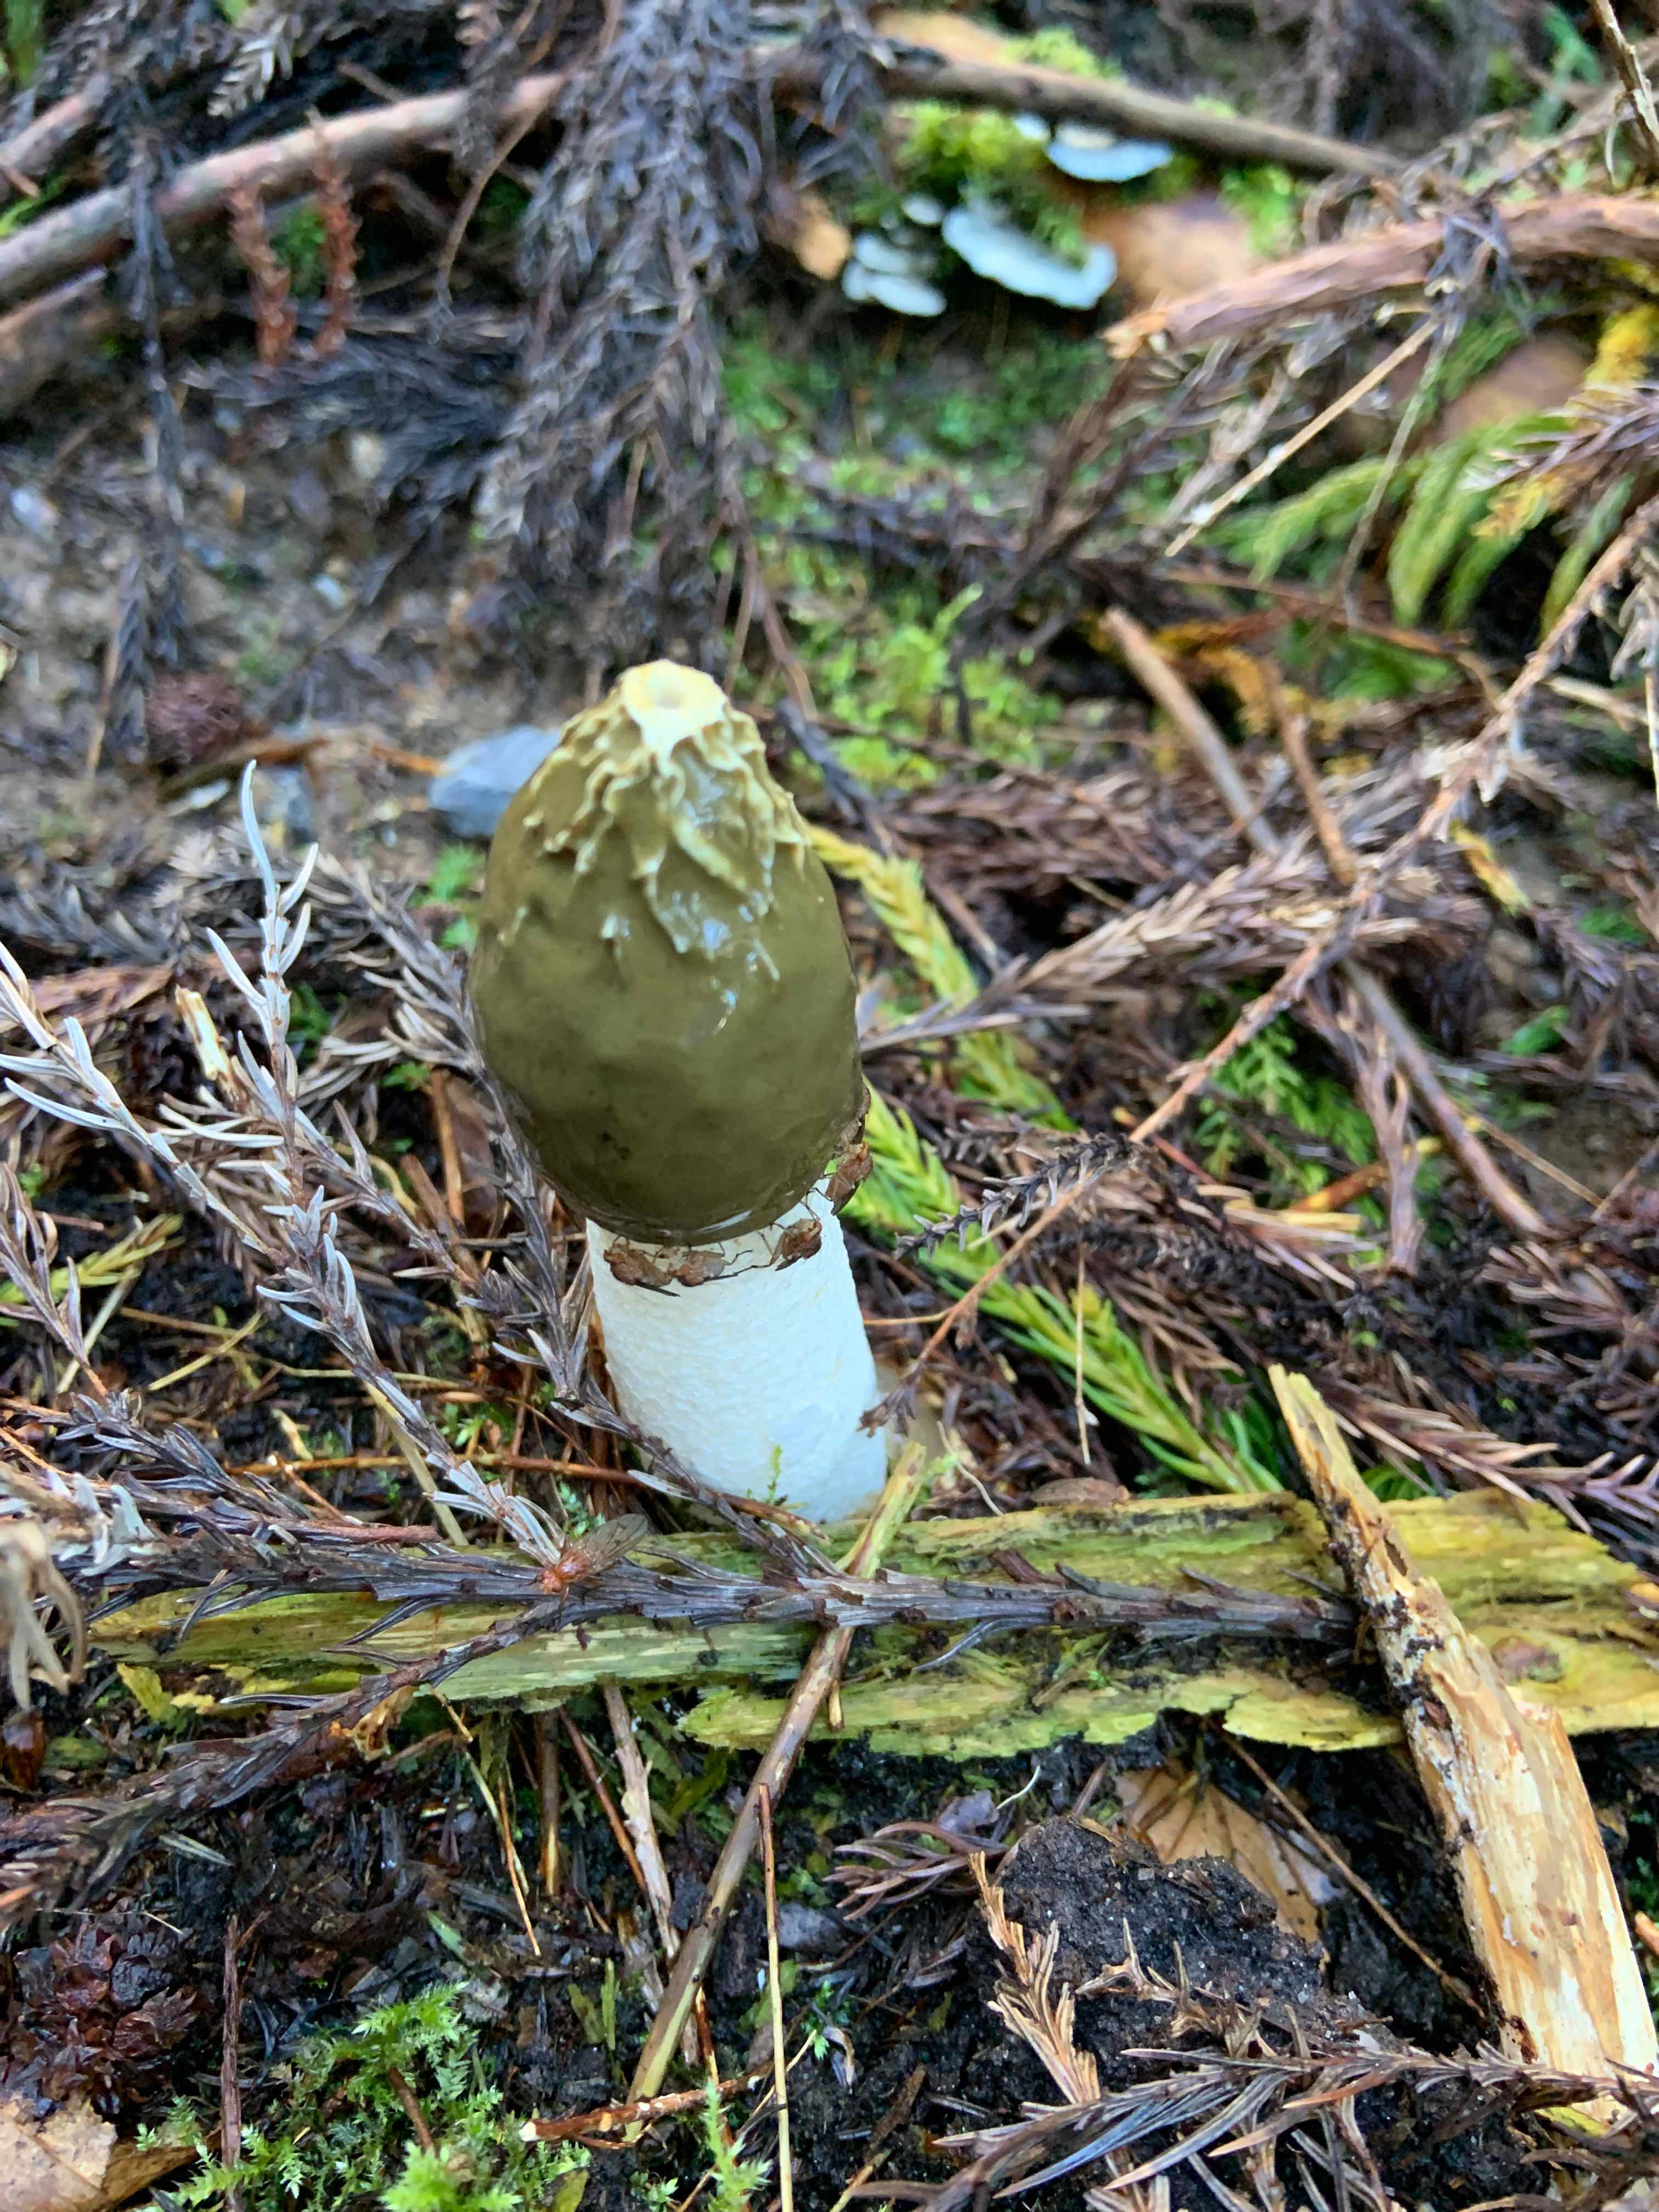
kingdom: Fungi
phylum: Basidiomycota
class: Agaricomycetes
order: Phallales
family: Phallaceae
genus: Phallus
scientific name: Phallus impudicus
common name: almindelig stinksvamp
